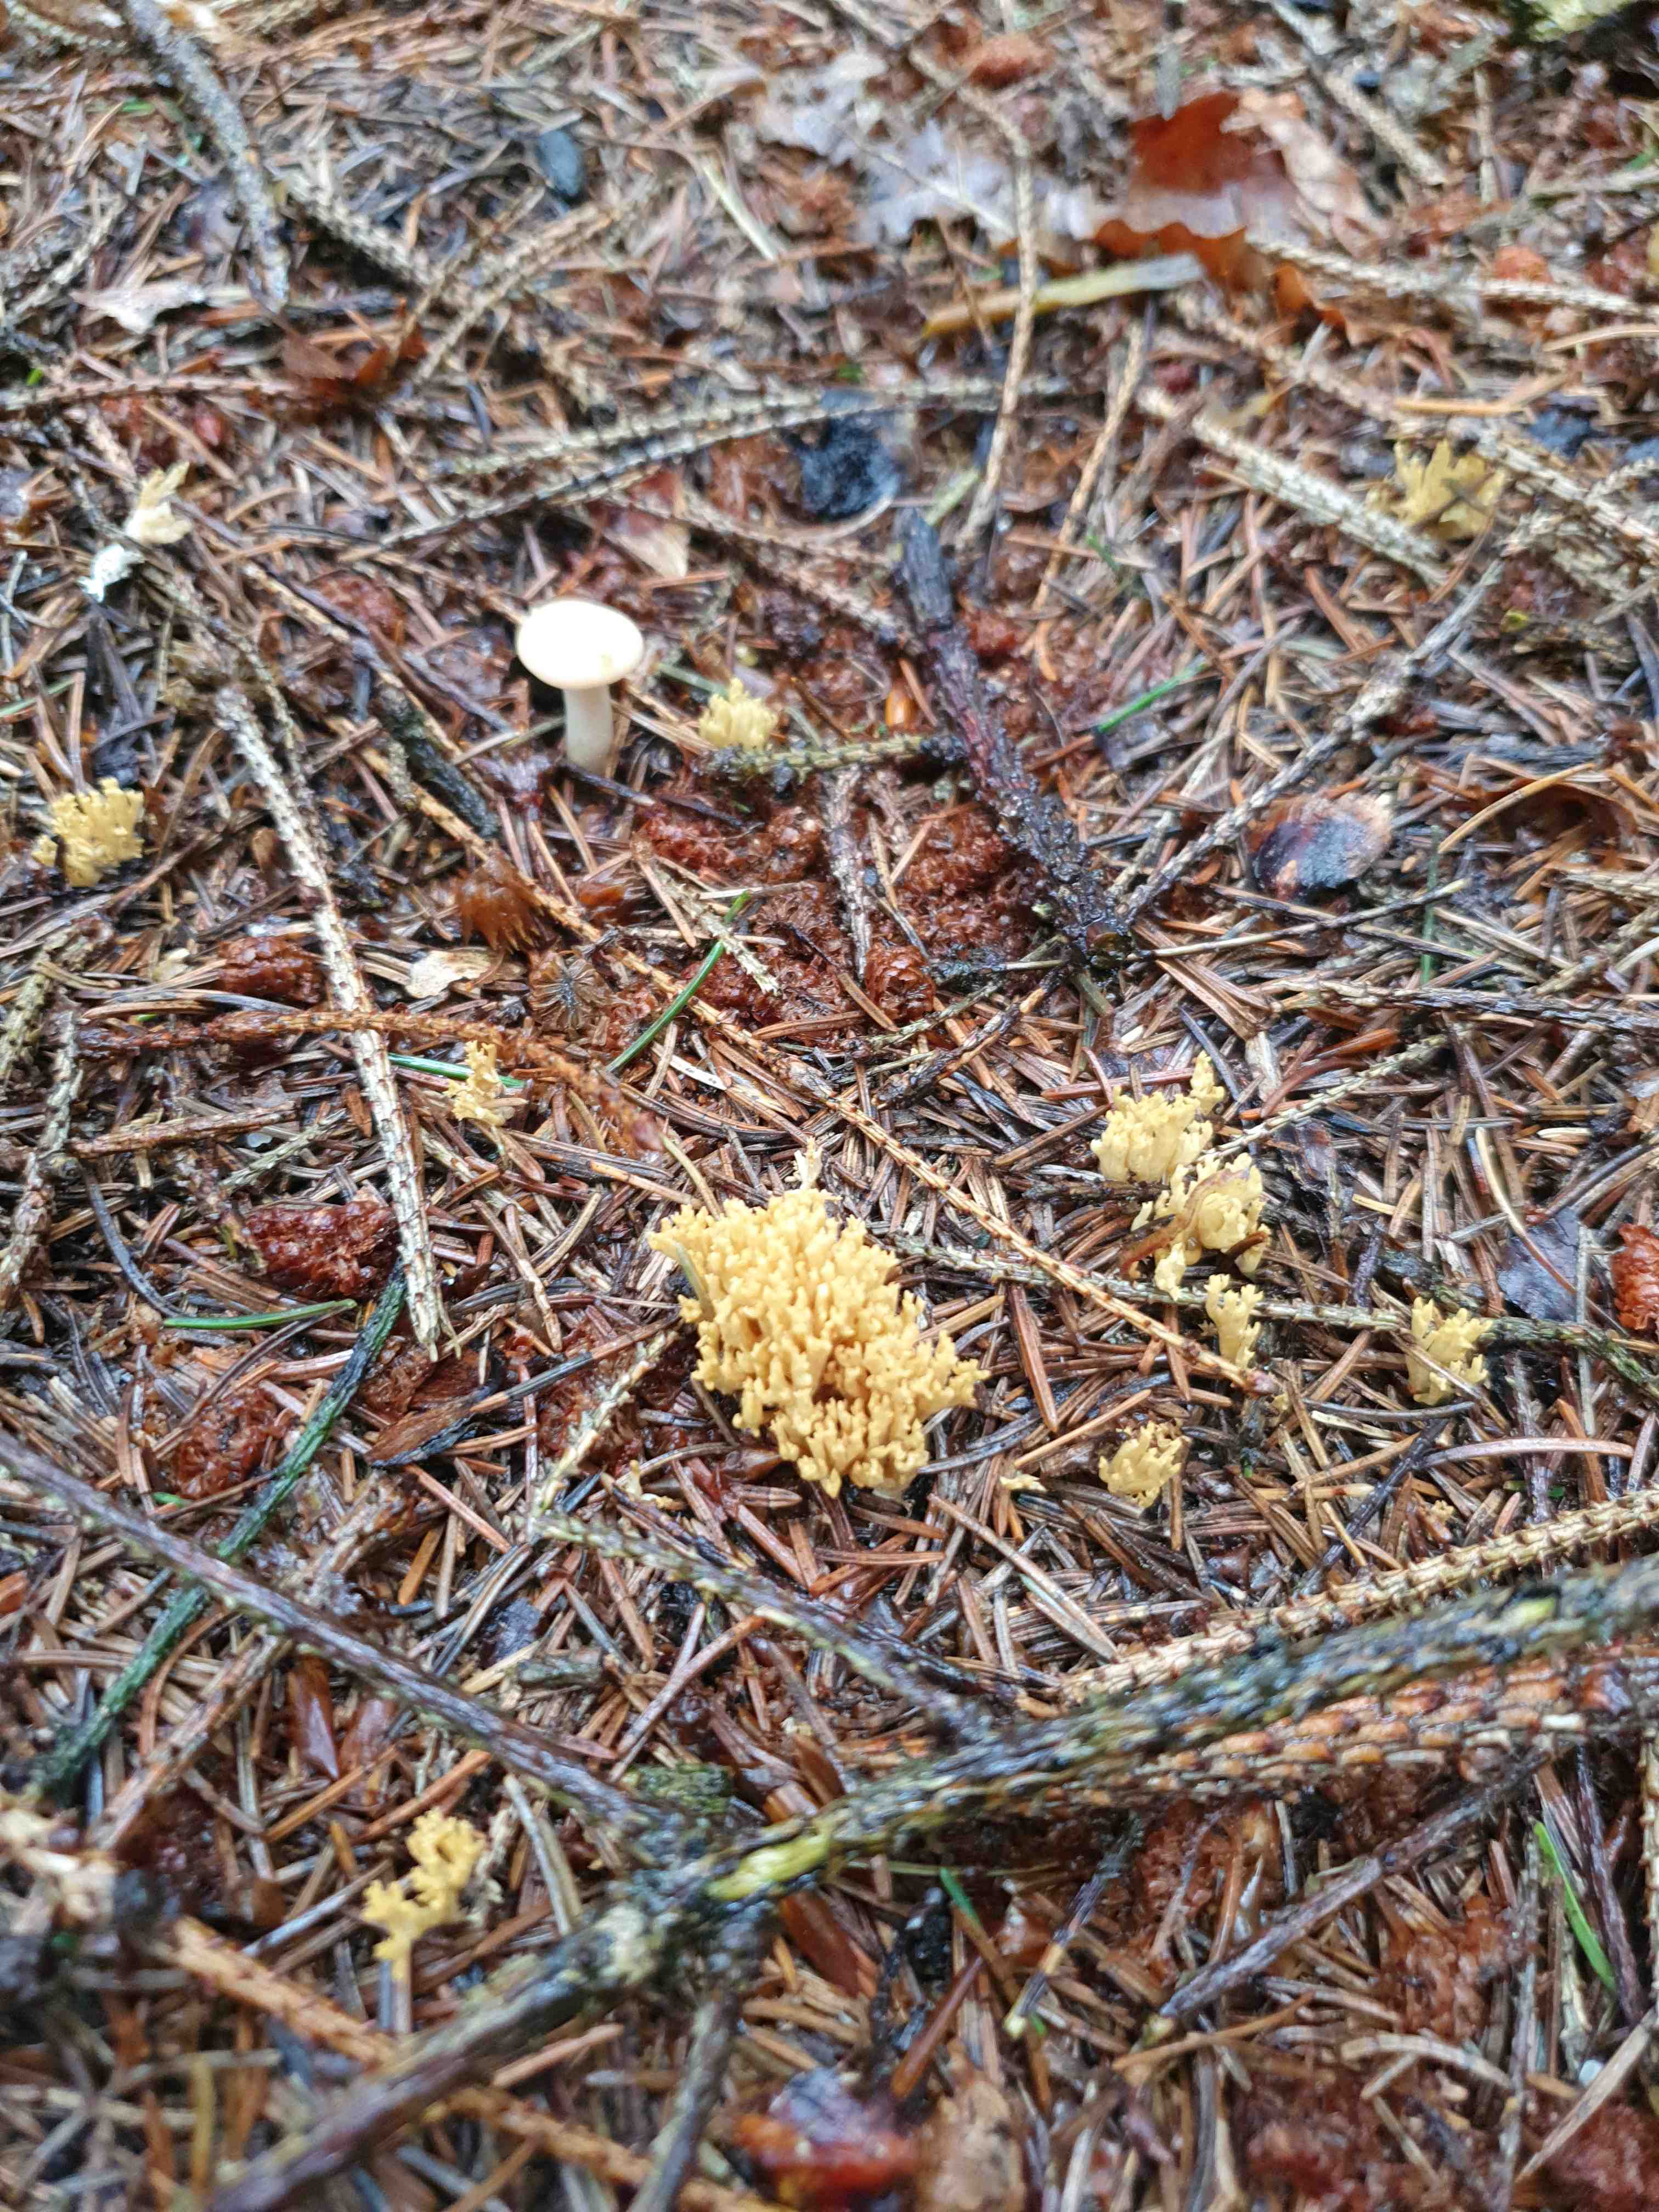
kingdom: Fungi
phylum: Basidiomycota
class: Agaricomycetes
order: Gomphales
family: Gomphaceae
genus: Phaeoclavulina
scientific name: Phaeoclavulina eumorpha
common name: gran-koralsvamp
